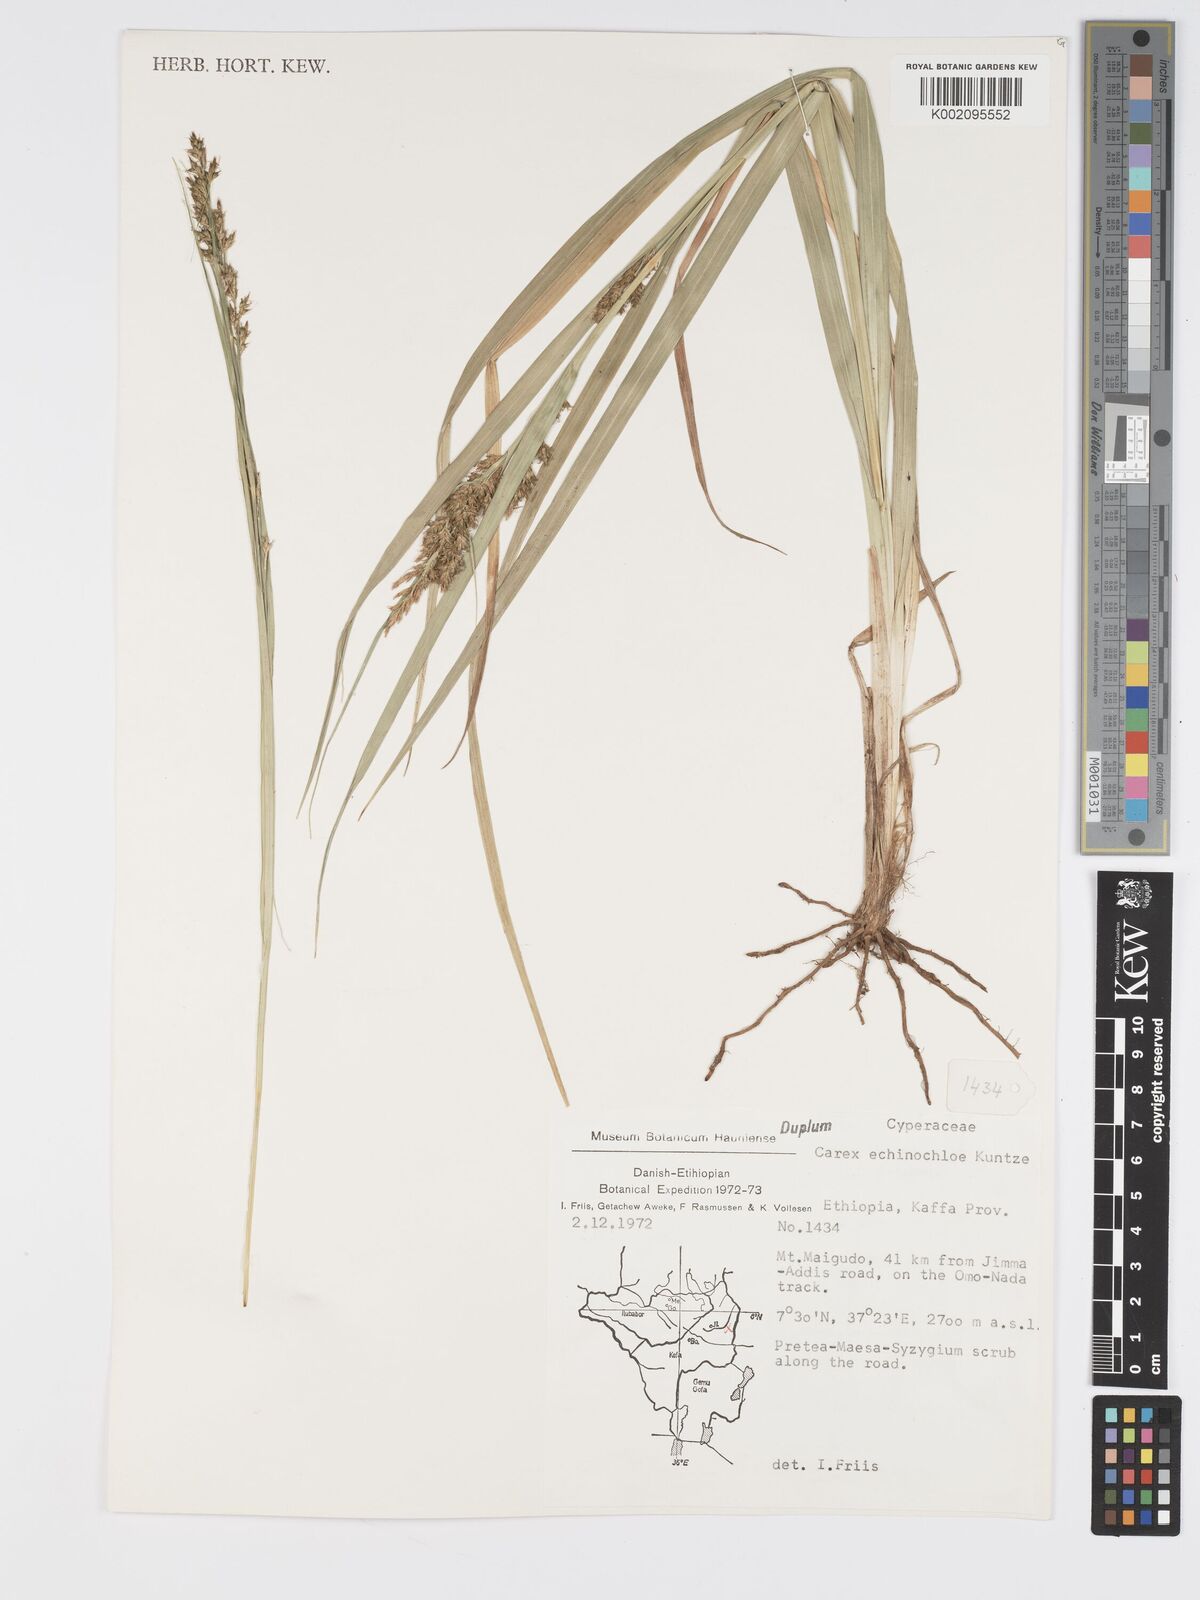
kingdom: Plantae
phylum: Tracheophyta
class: Liliopsida
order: Poales
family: Cyperaceae
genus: Carex
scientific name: Carex echinochloe
